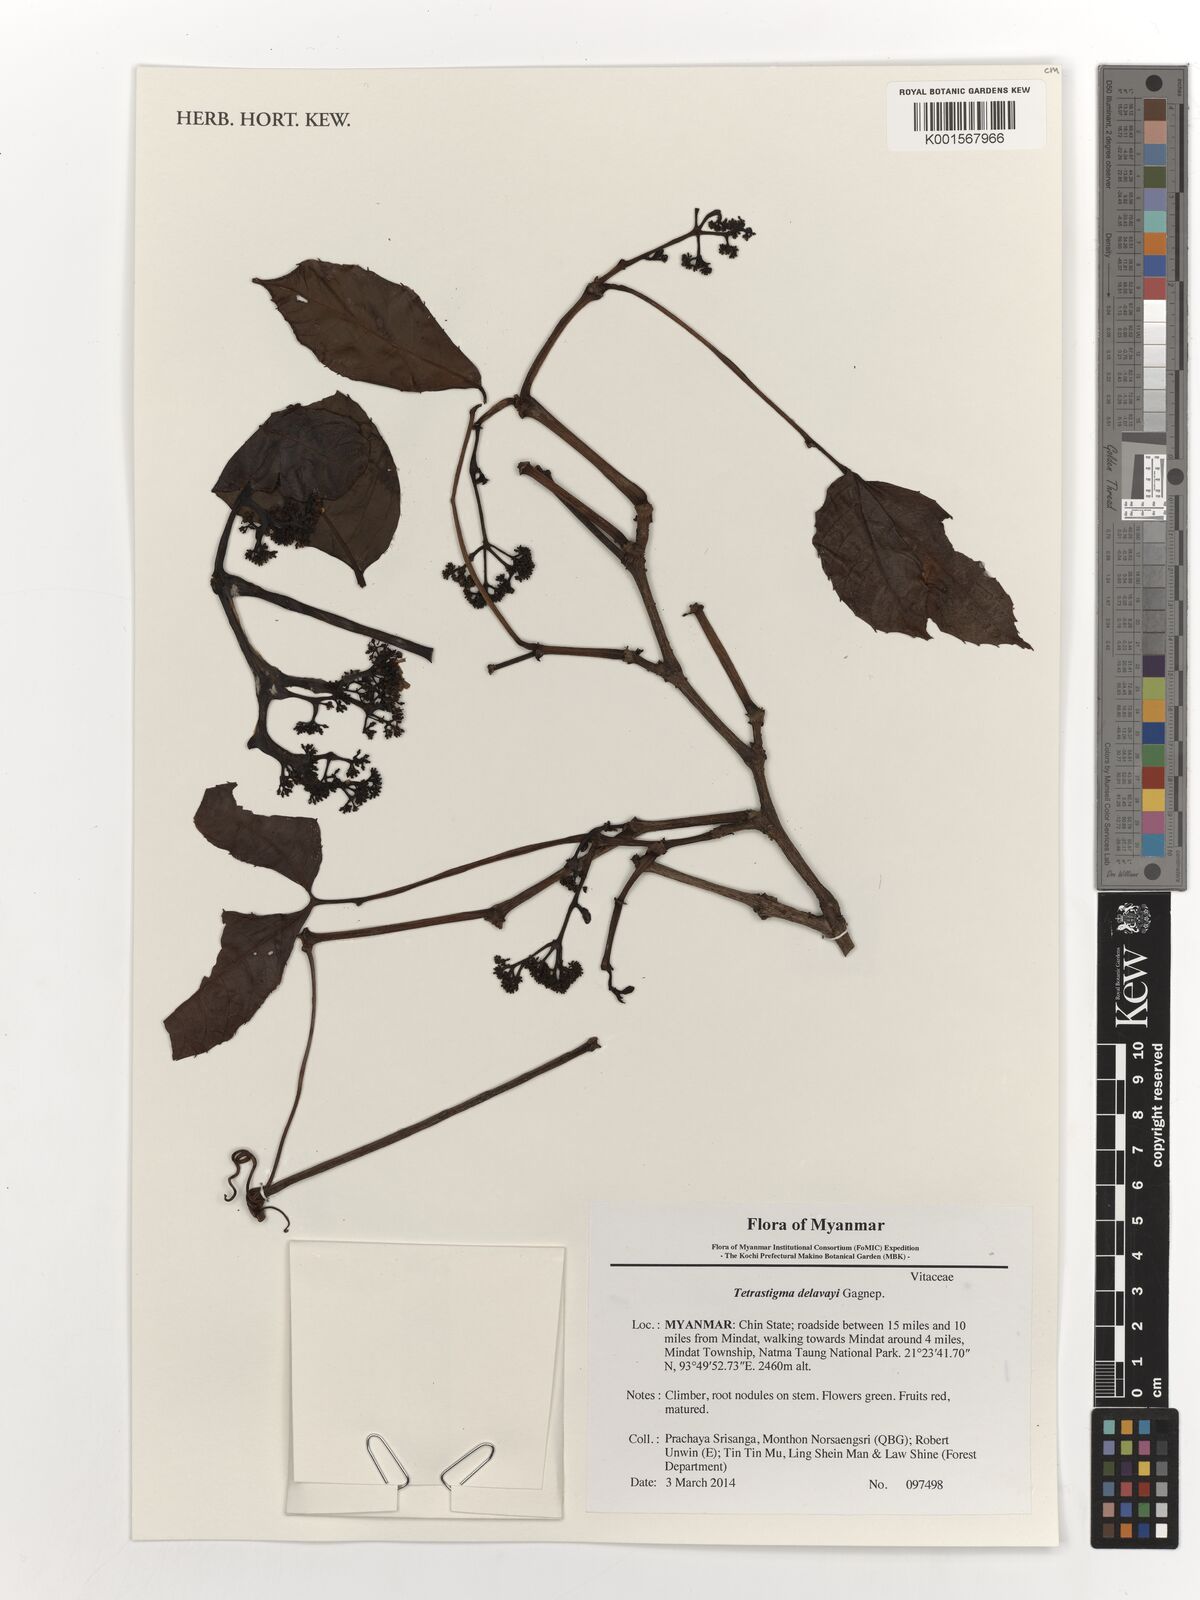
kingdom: Plantae
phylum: Tracheophyta
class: Magnoliopsida
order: Vitales
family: Vitaceae
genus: Tetrastigma
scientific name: Tetrastigma delavayi
